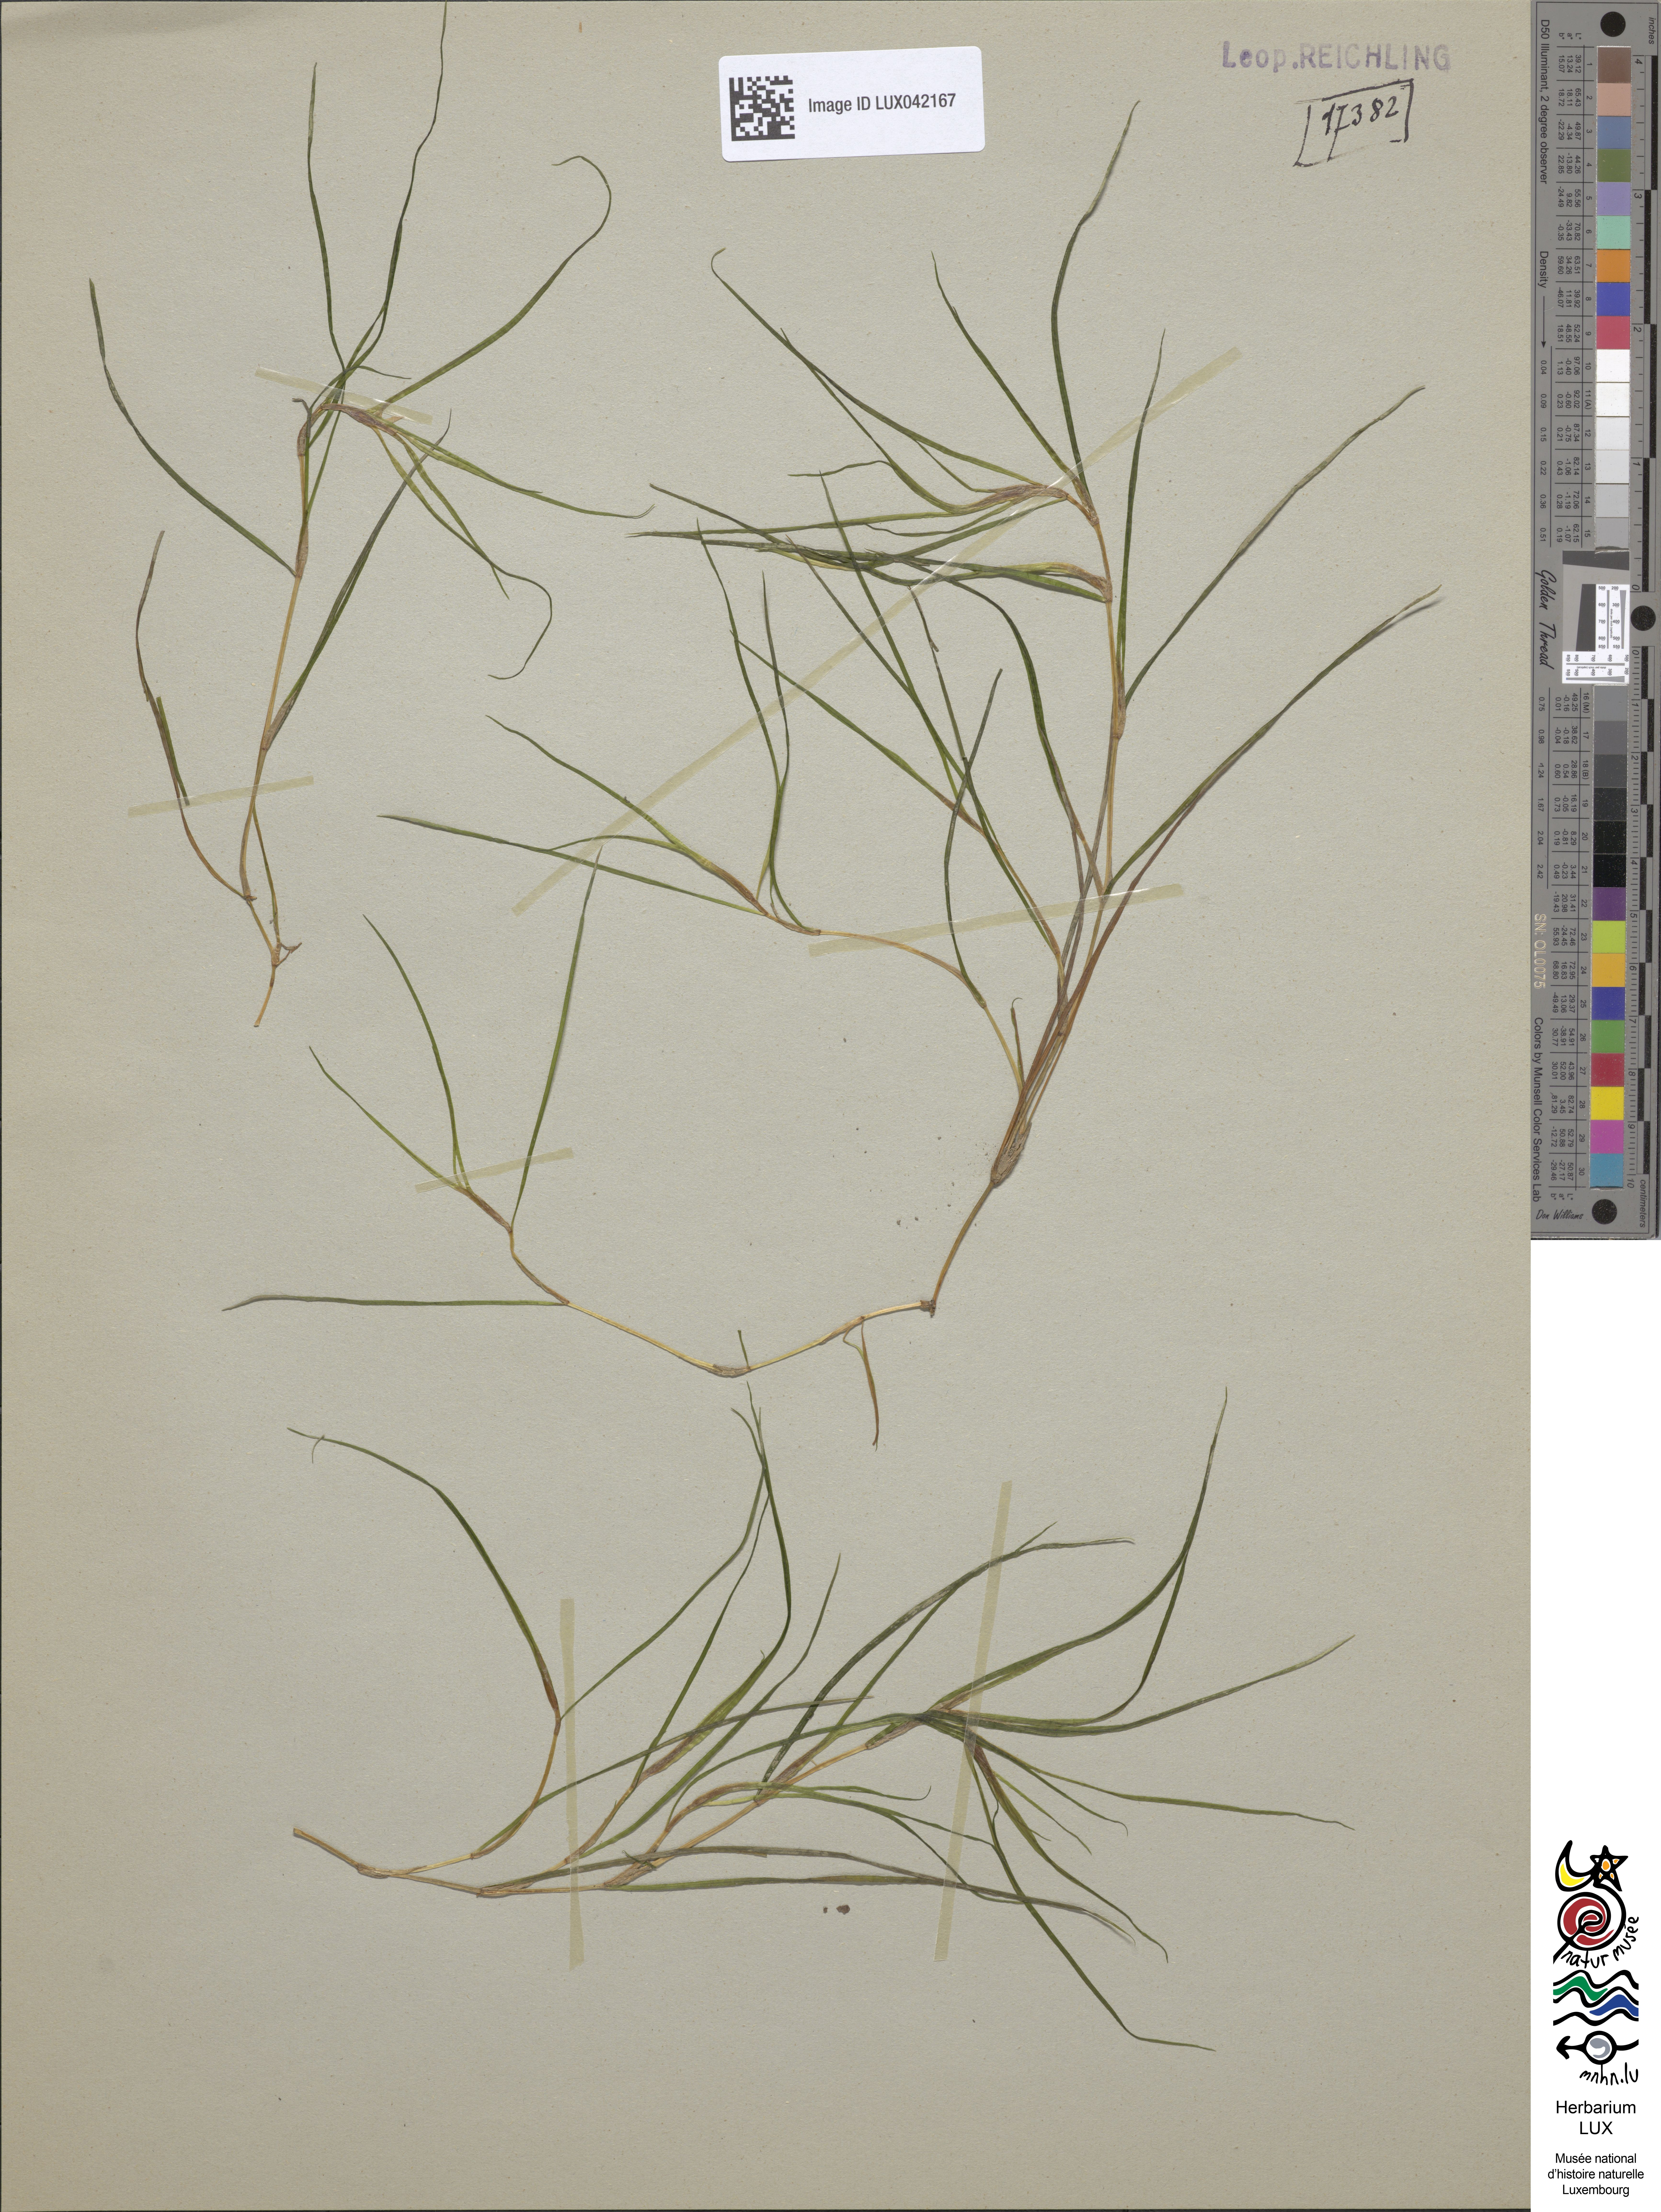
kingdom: Plantae
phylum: Tracheophyta
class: Liliopsida
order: Alismatales
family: Potamogetonaceae
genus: Zannichellia
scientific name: Zannichellia palustris
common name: Horned pondweed
